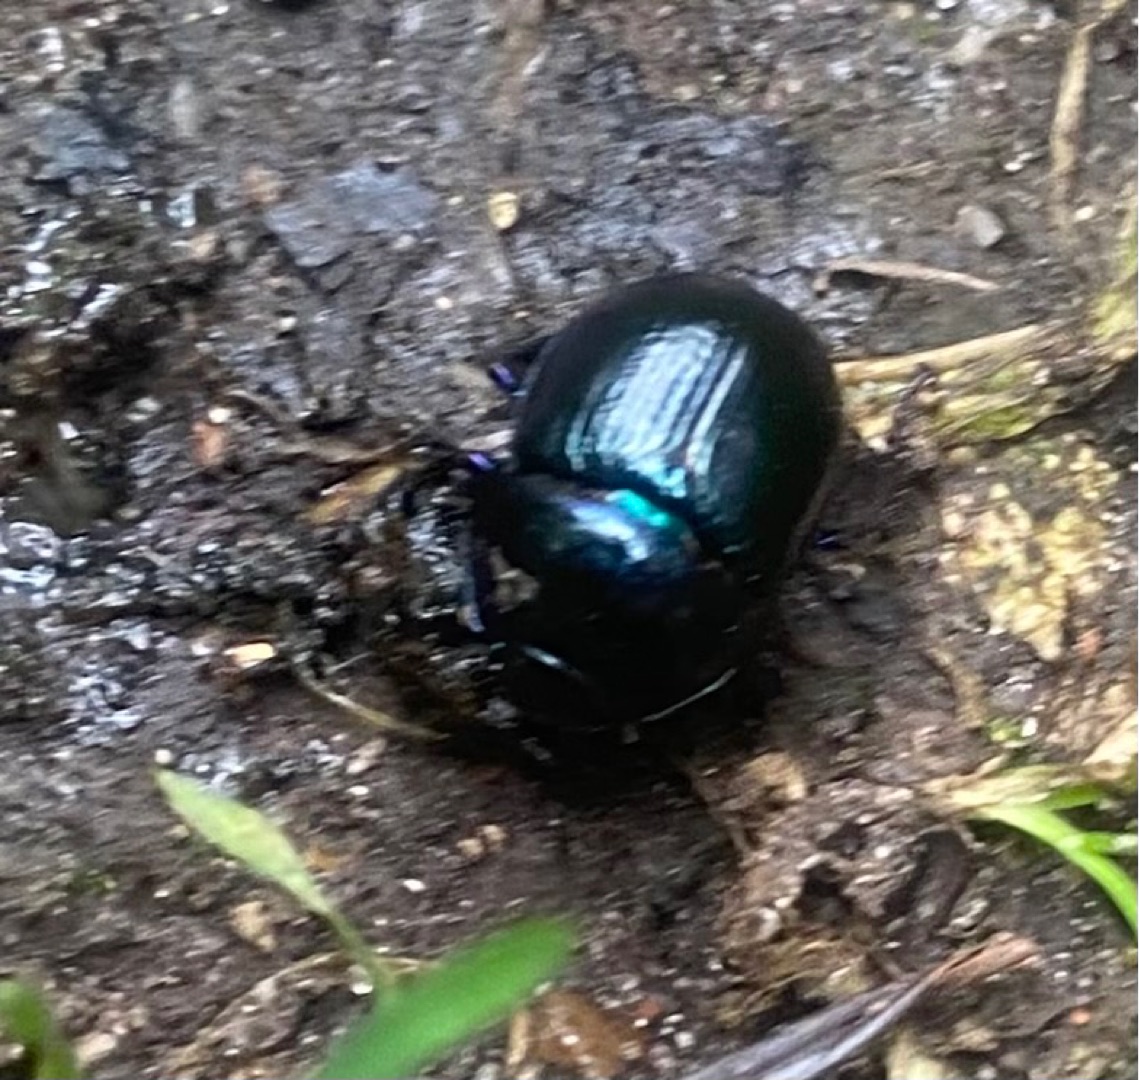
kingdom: Animalia
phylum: Arthropoda
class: Insecta
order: Coleoptera
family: Geotrupidae
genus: Anoplotrupes
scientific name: Anoplotrupes stercorosus
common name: Skovskarnbasse
